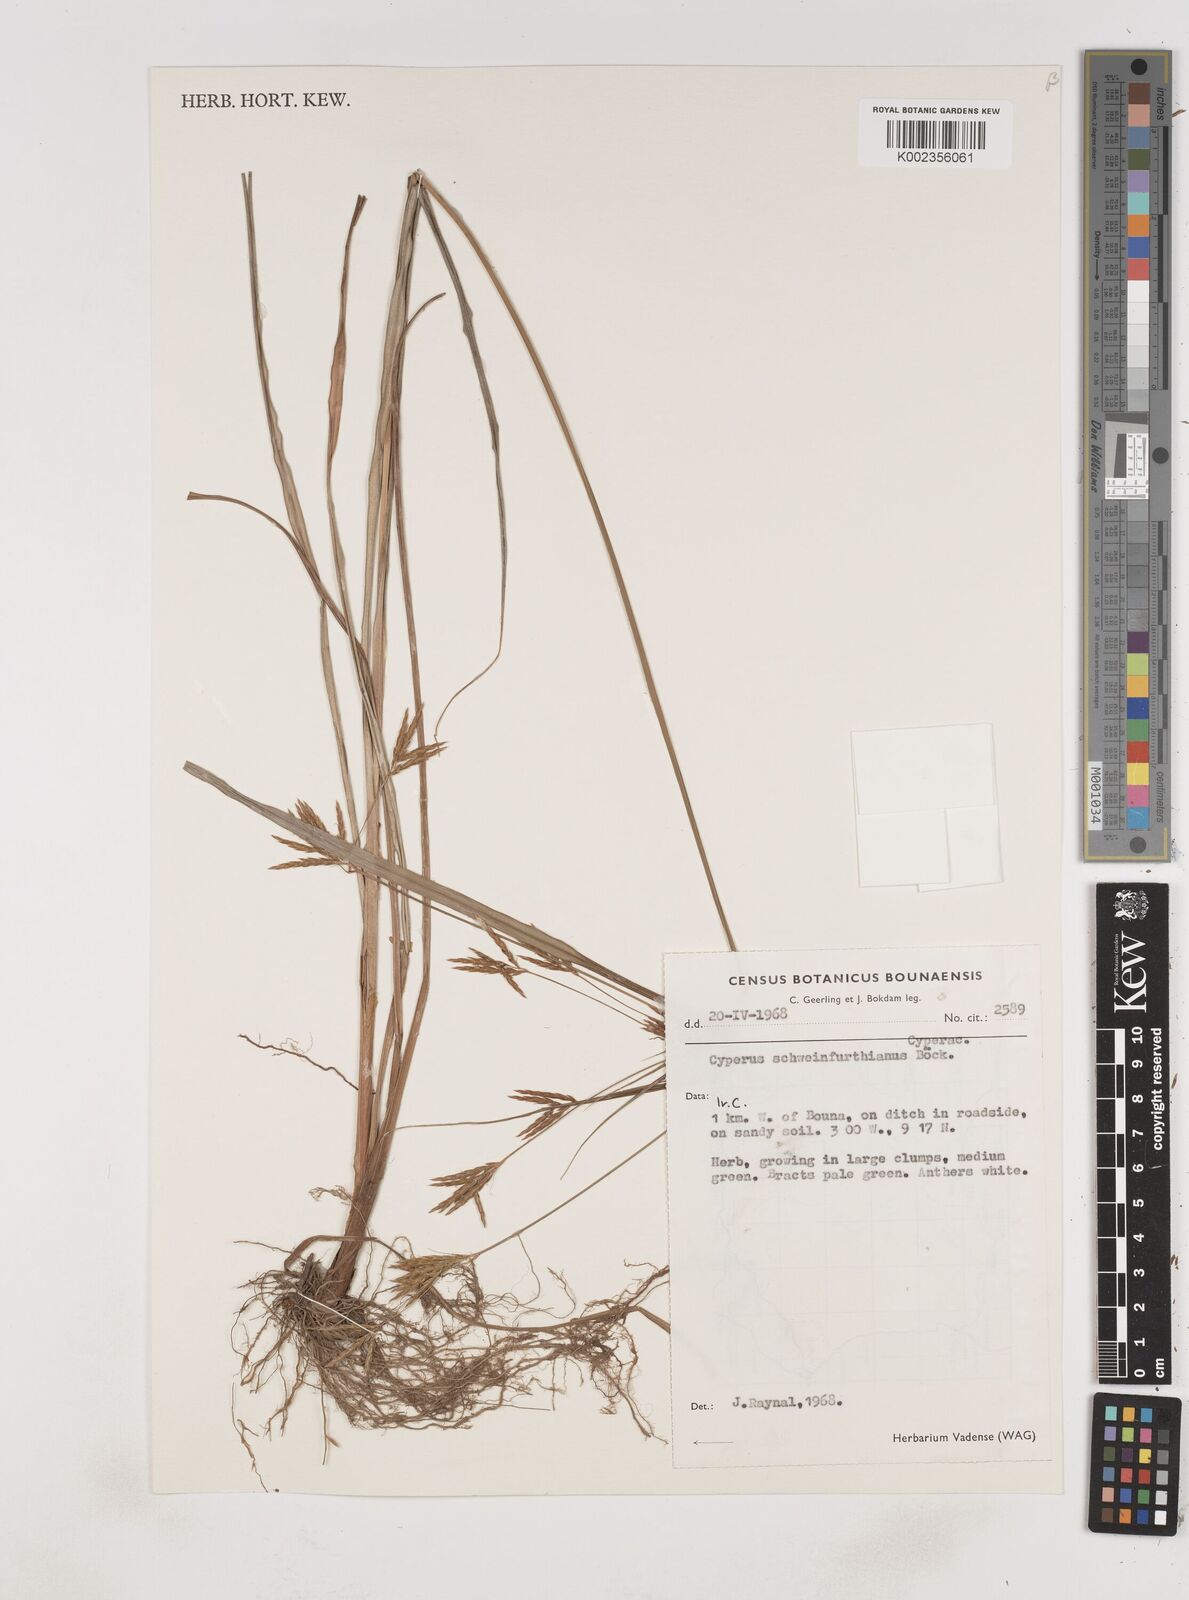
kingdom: Plantae
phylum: Tracheophyta
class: Liliopsida
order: Poales
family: Cyperaceae
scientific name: Cyperaceae
